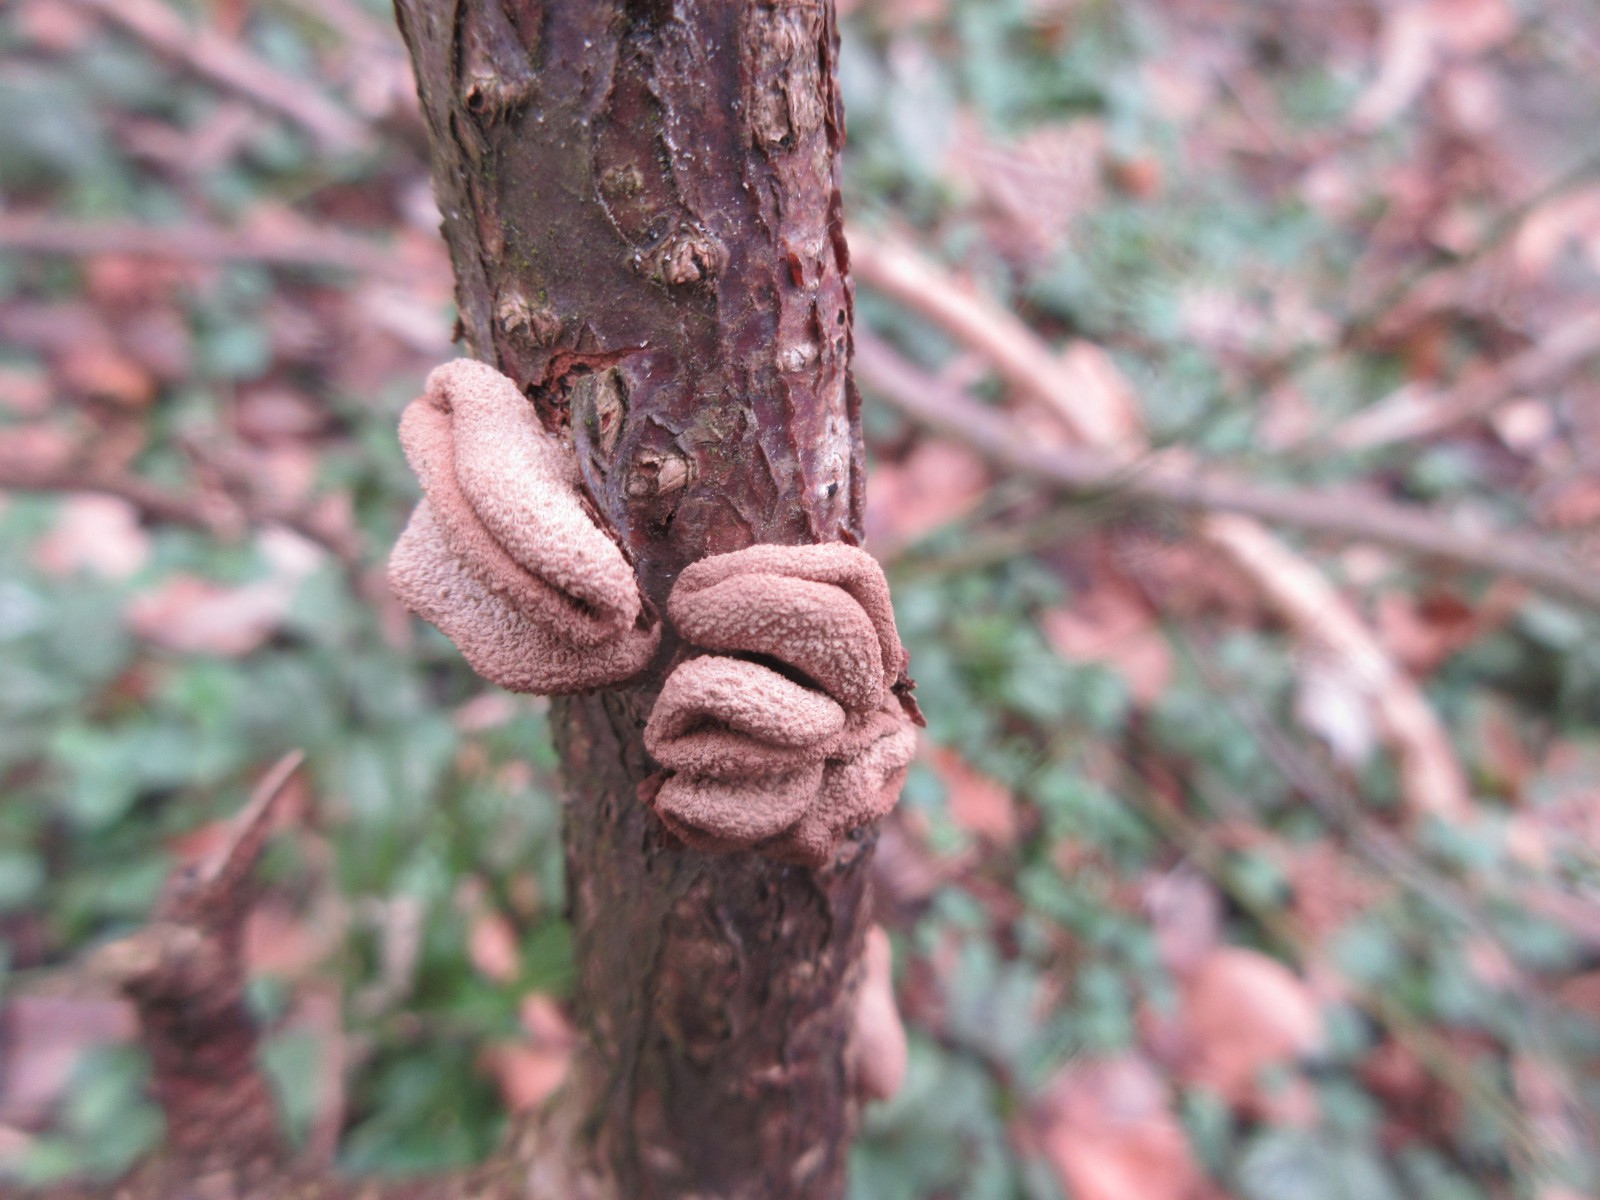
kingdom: Fungi
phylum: Ascomycota
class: Leotiomycetes
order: Helotiales
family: Cenangiaceae
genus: Encoelia
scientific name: Encoelia furfuracea
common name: hassel-læderskive
